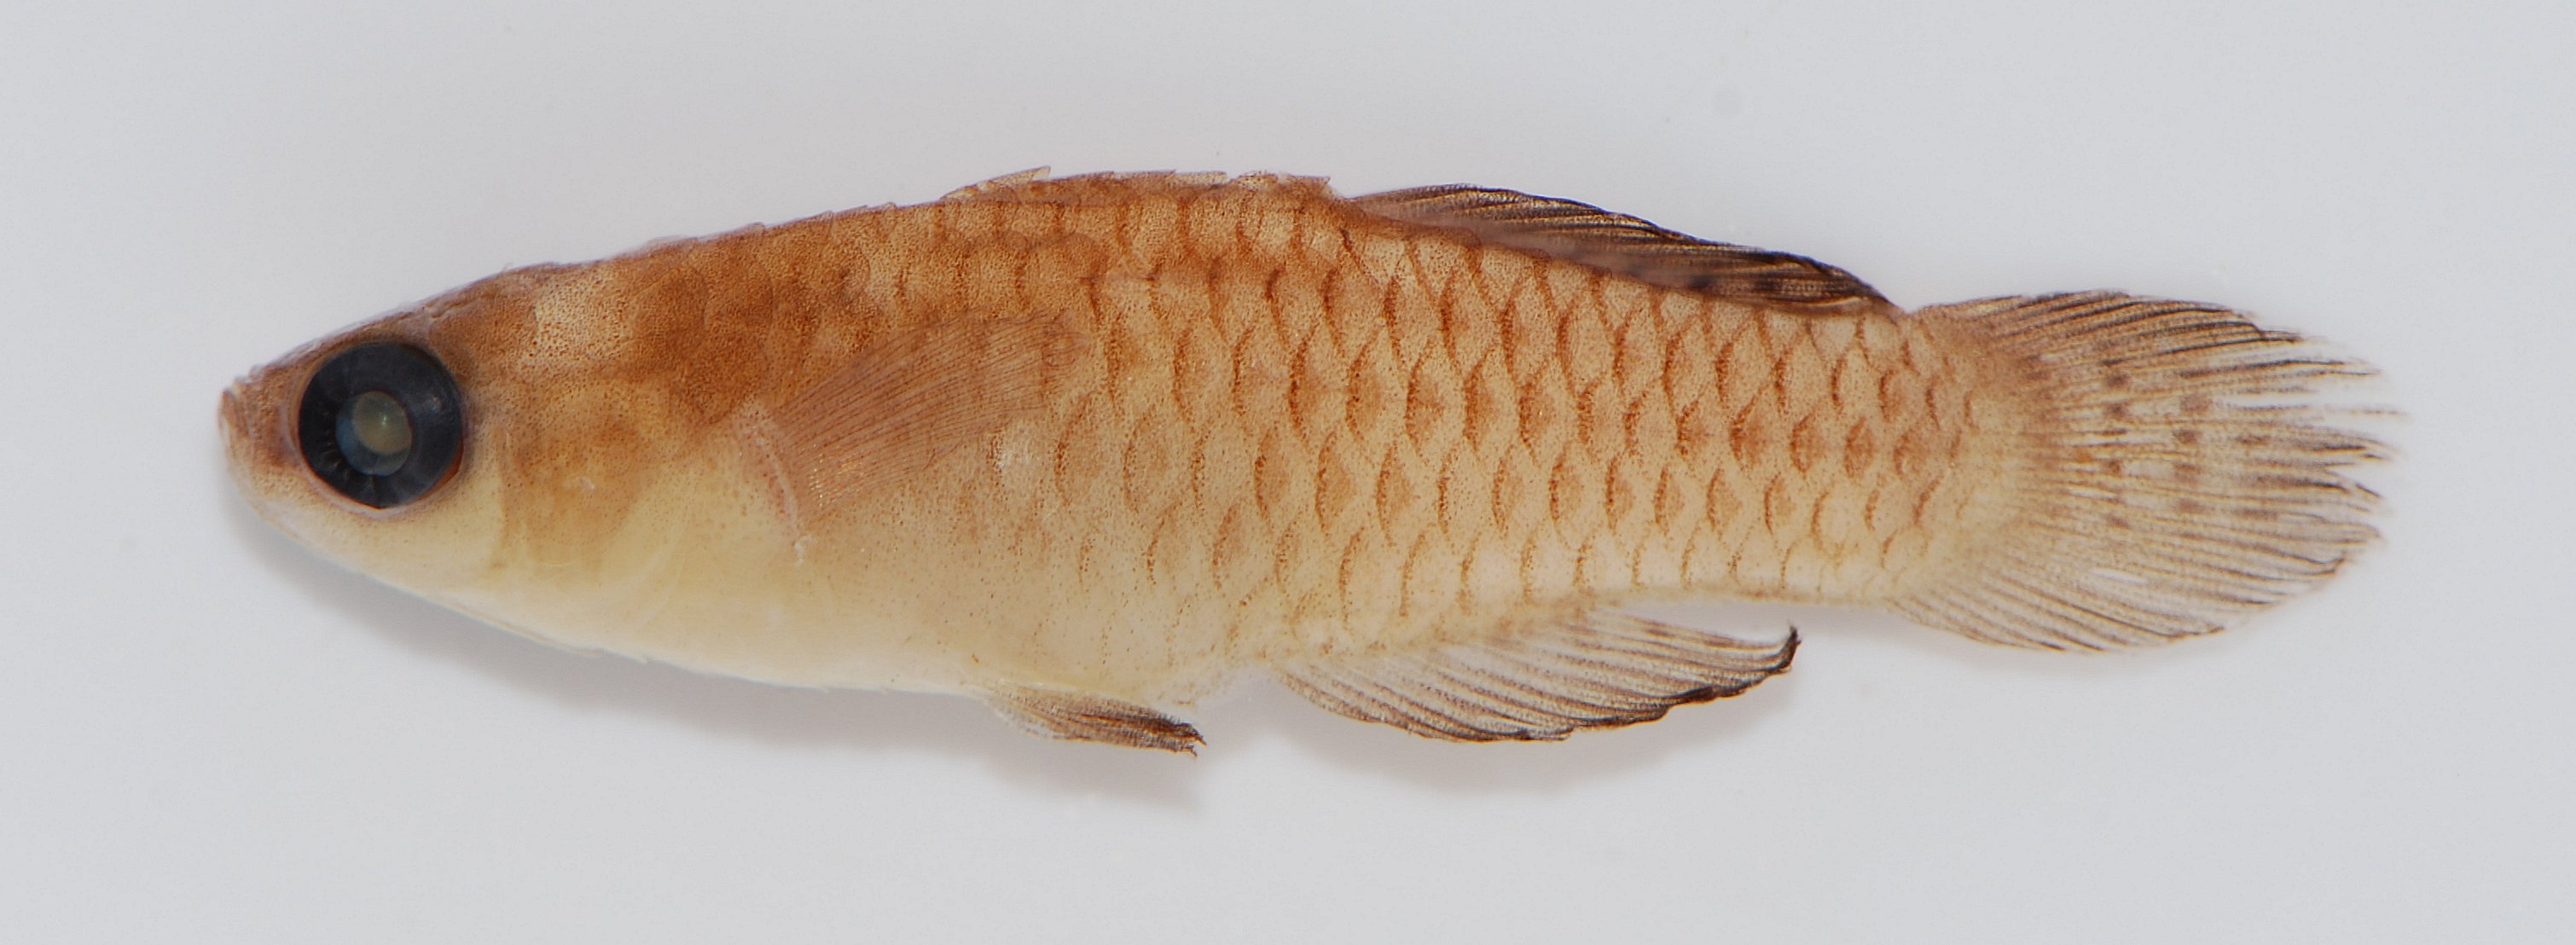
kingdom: Animalia
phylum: Chordata
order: Cyprinodontiformes
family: Poeciliidae
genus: Lacustricola
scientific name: Lacustricola pygmaeus
